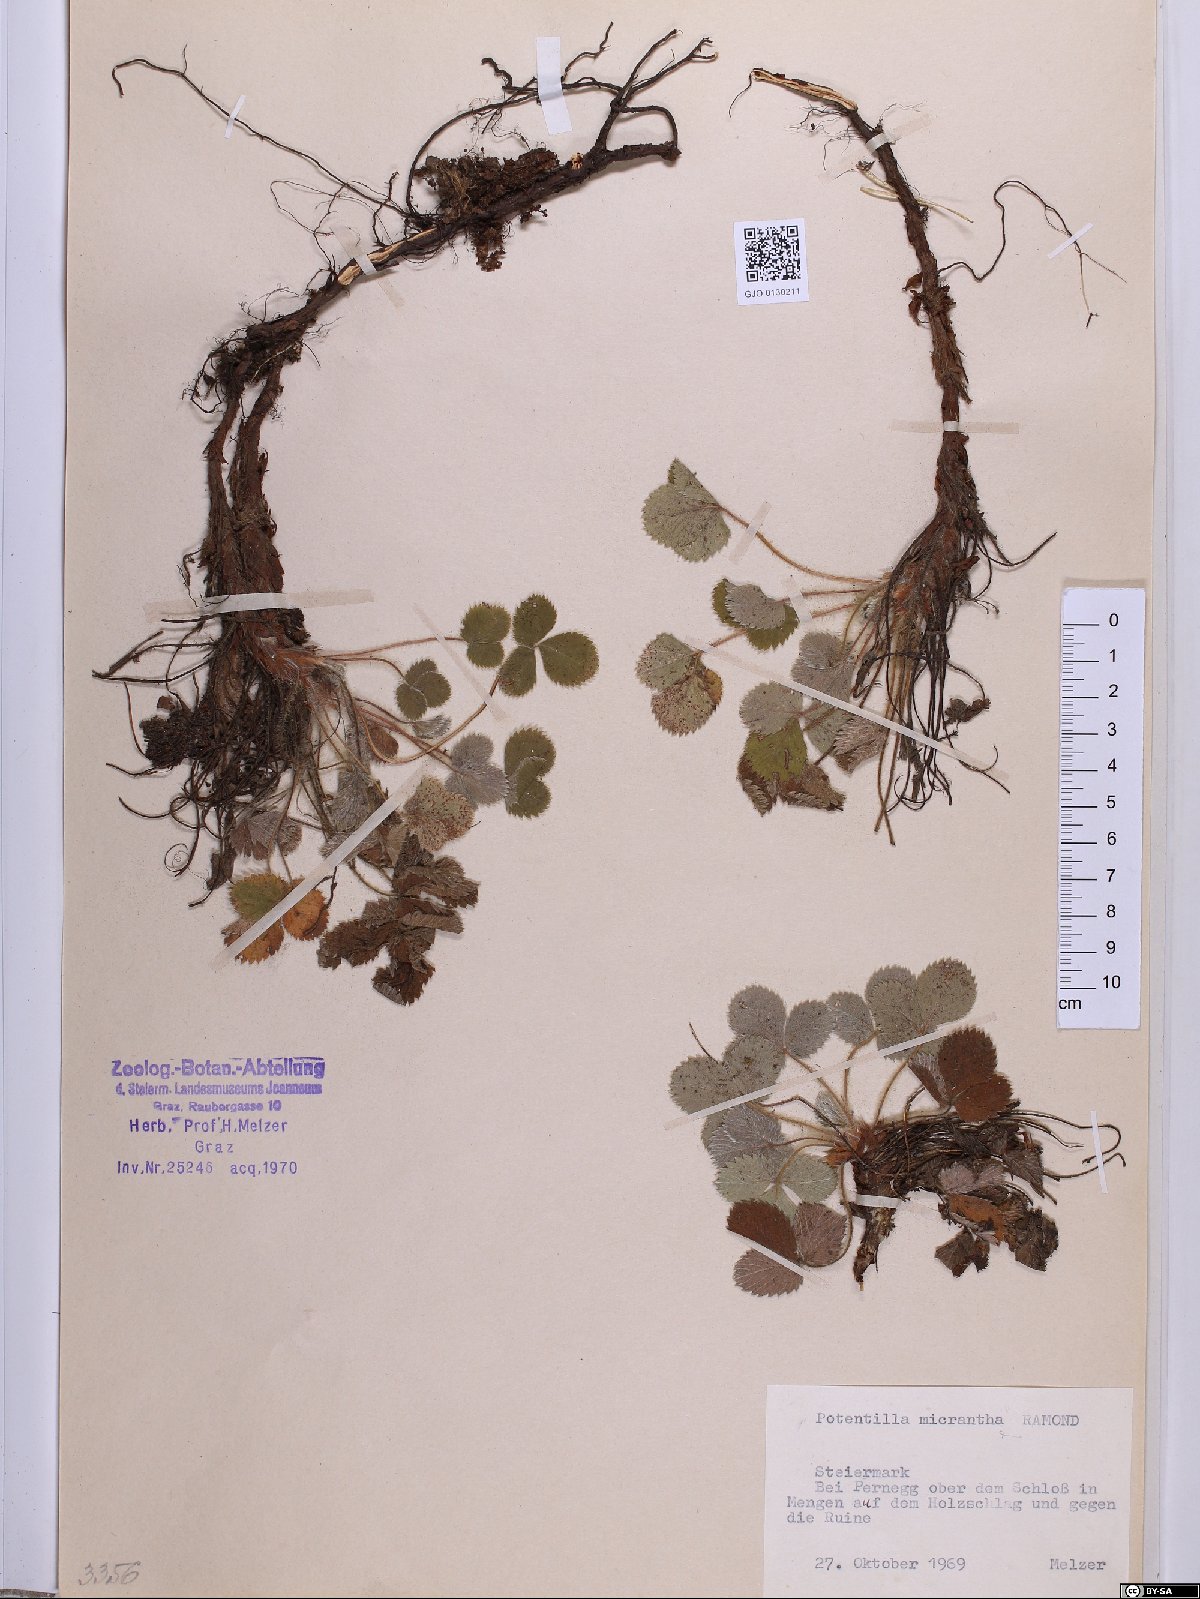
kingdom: Plantae
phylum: Tracheophyta
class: Magnoliopsida
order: Rosales
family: Rosaceae
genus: Potentilla
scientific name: Potentilla micrantha
